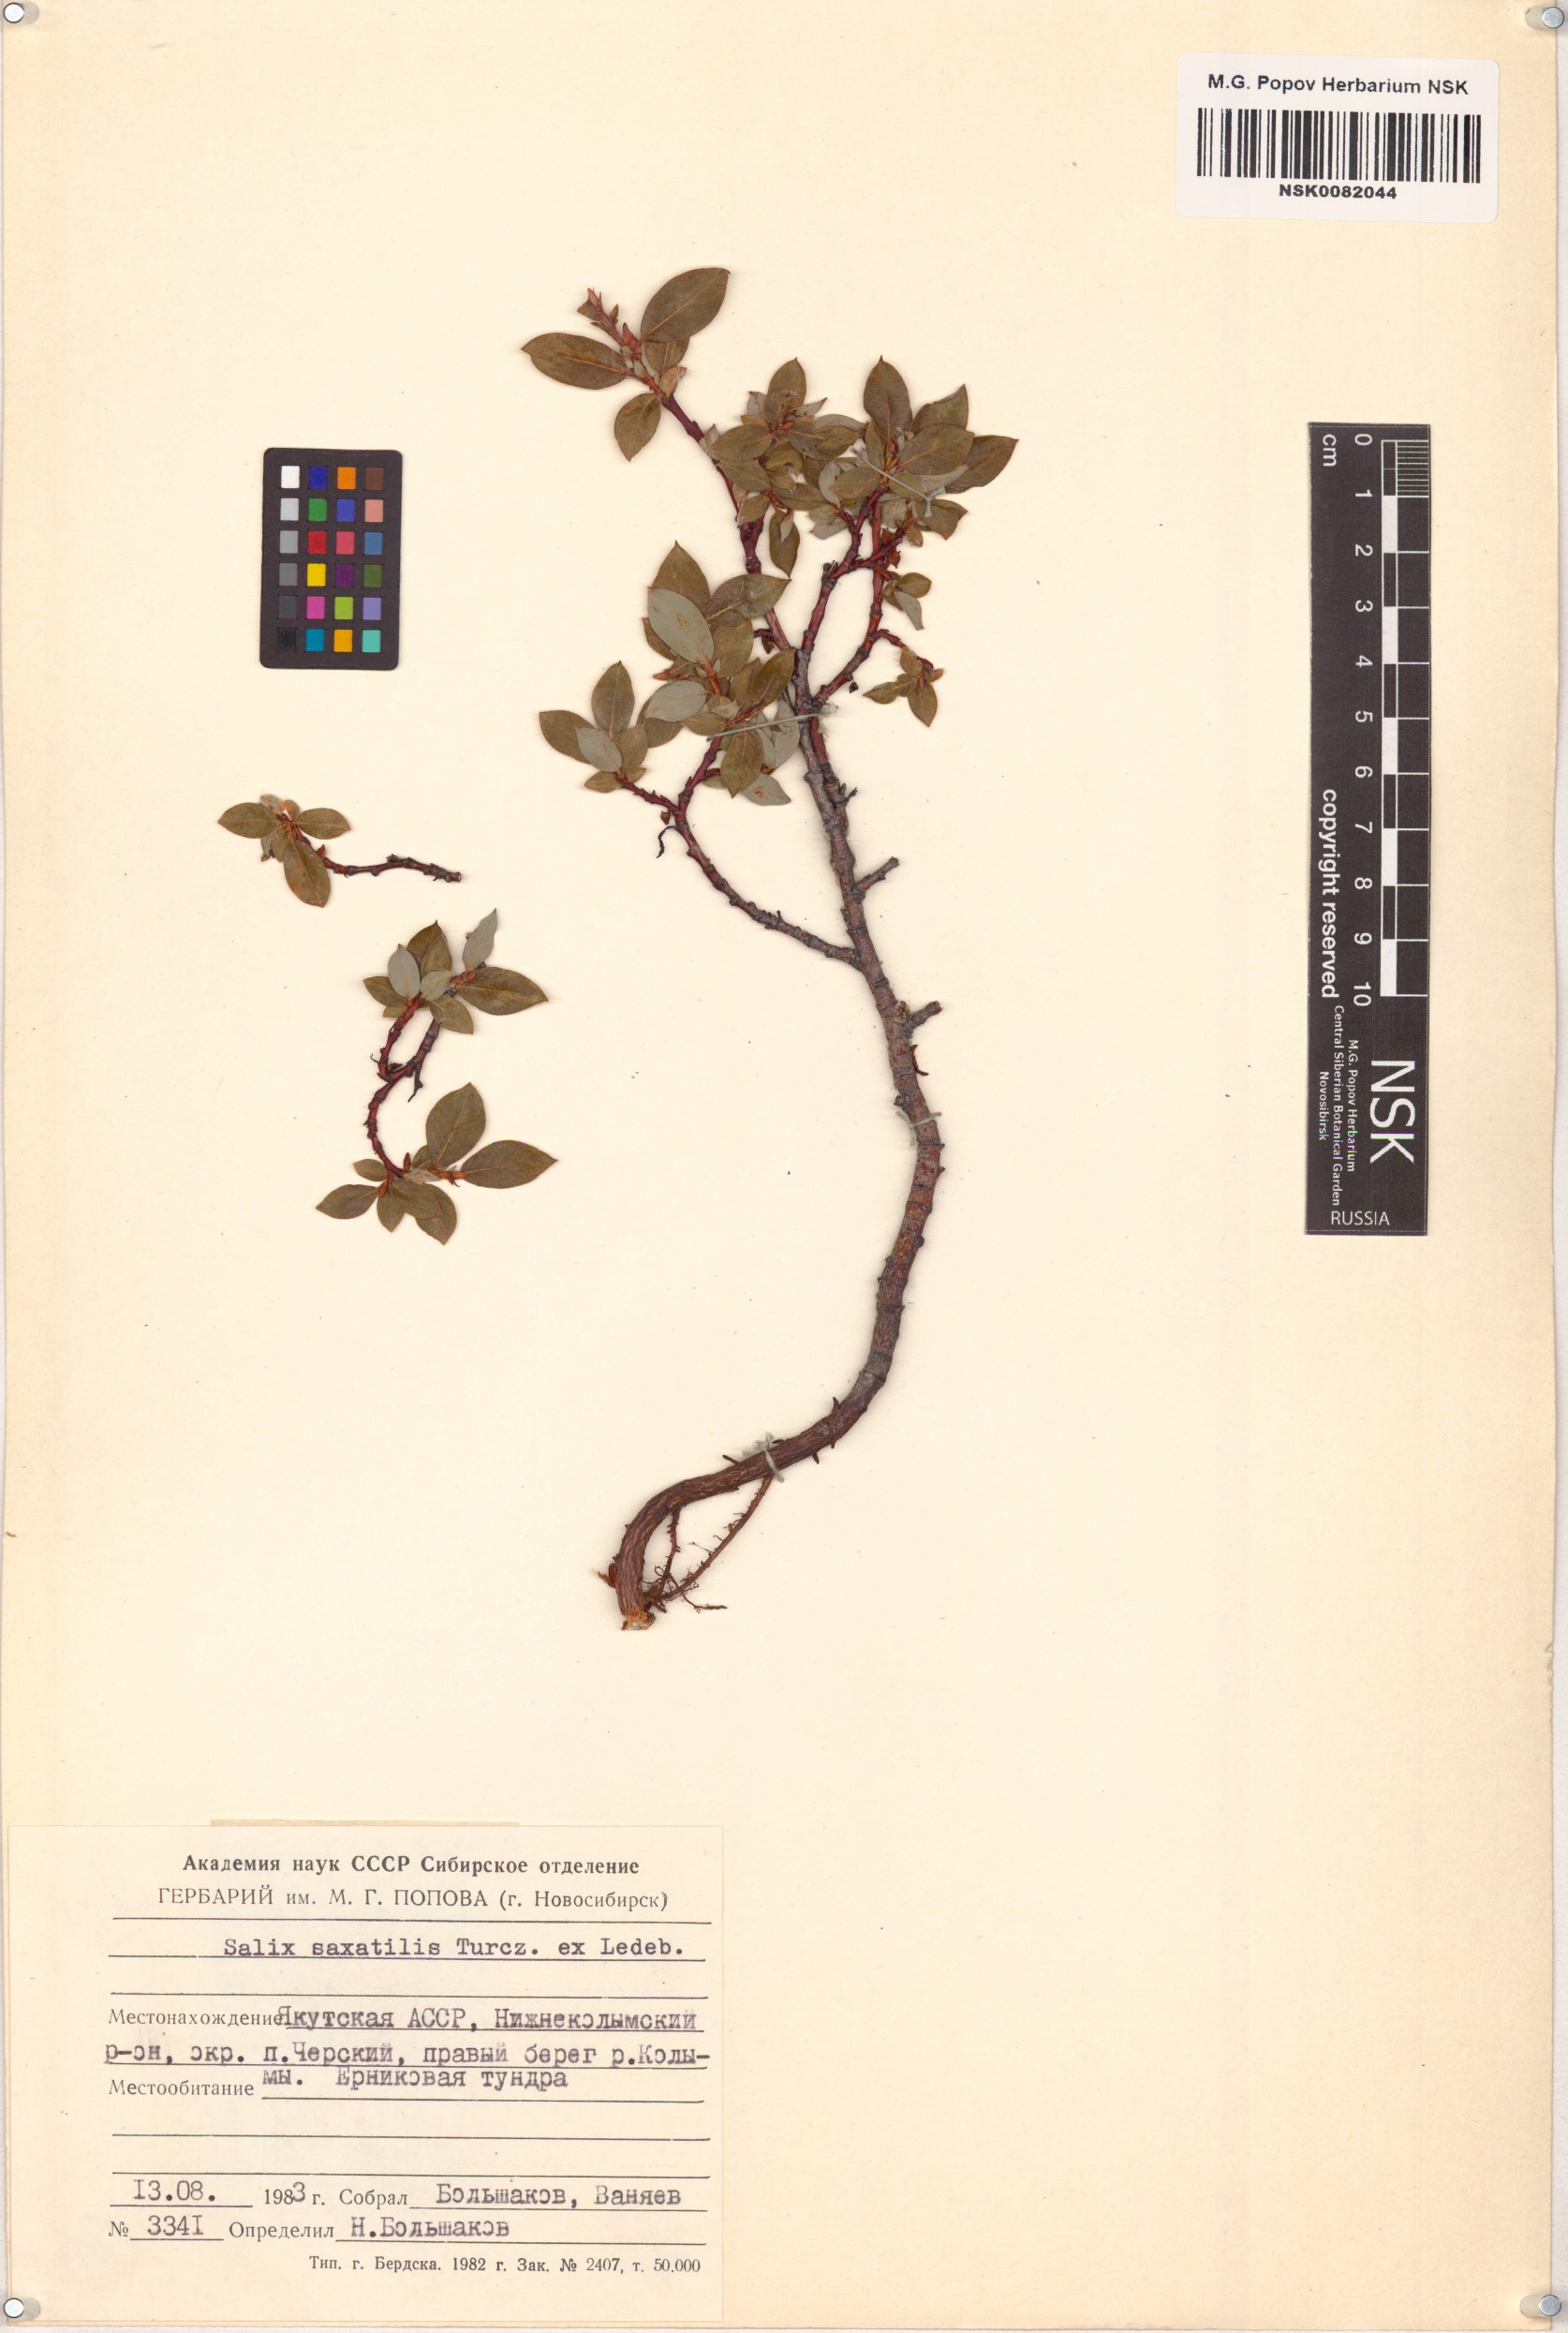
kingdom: Plantae
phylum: Tracheophyta
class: Magnoliopsida
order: Malpighiales
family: Salicaceae
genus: Salix
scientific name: Salix saxatilis
